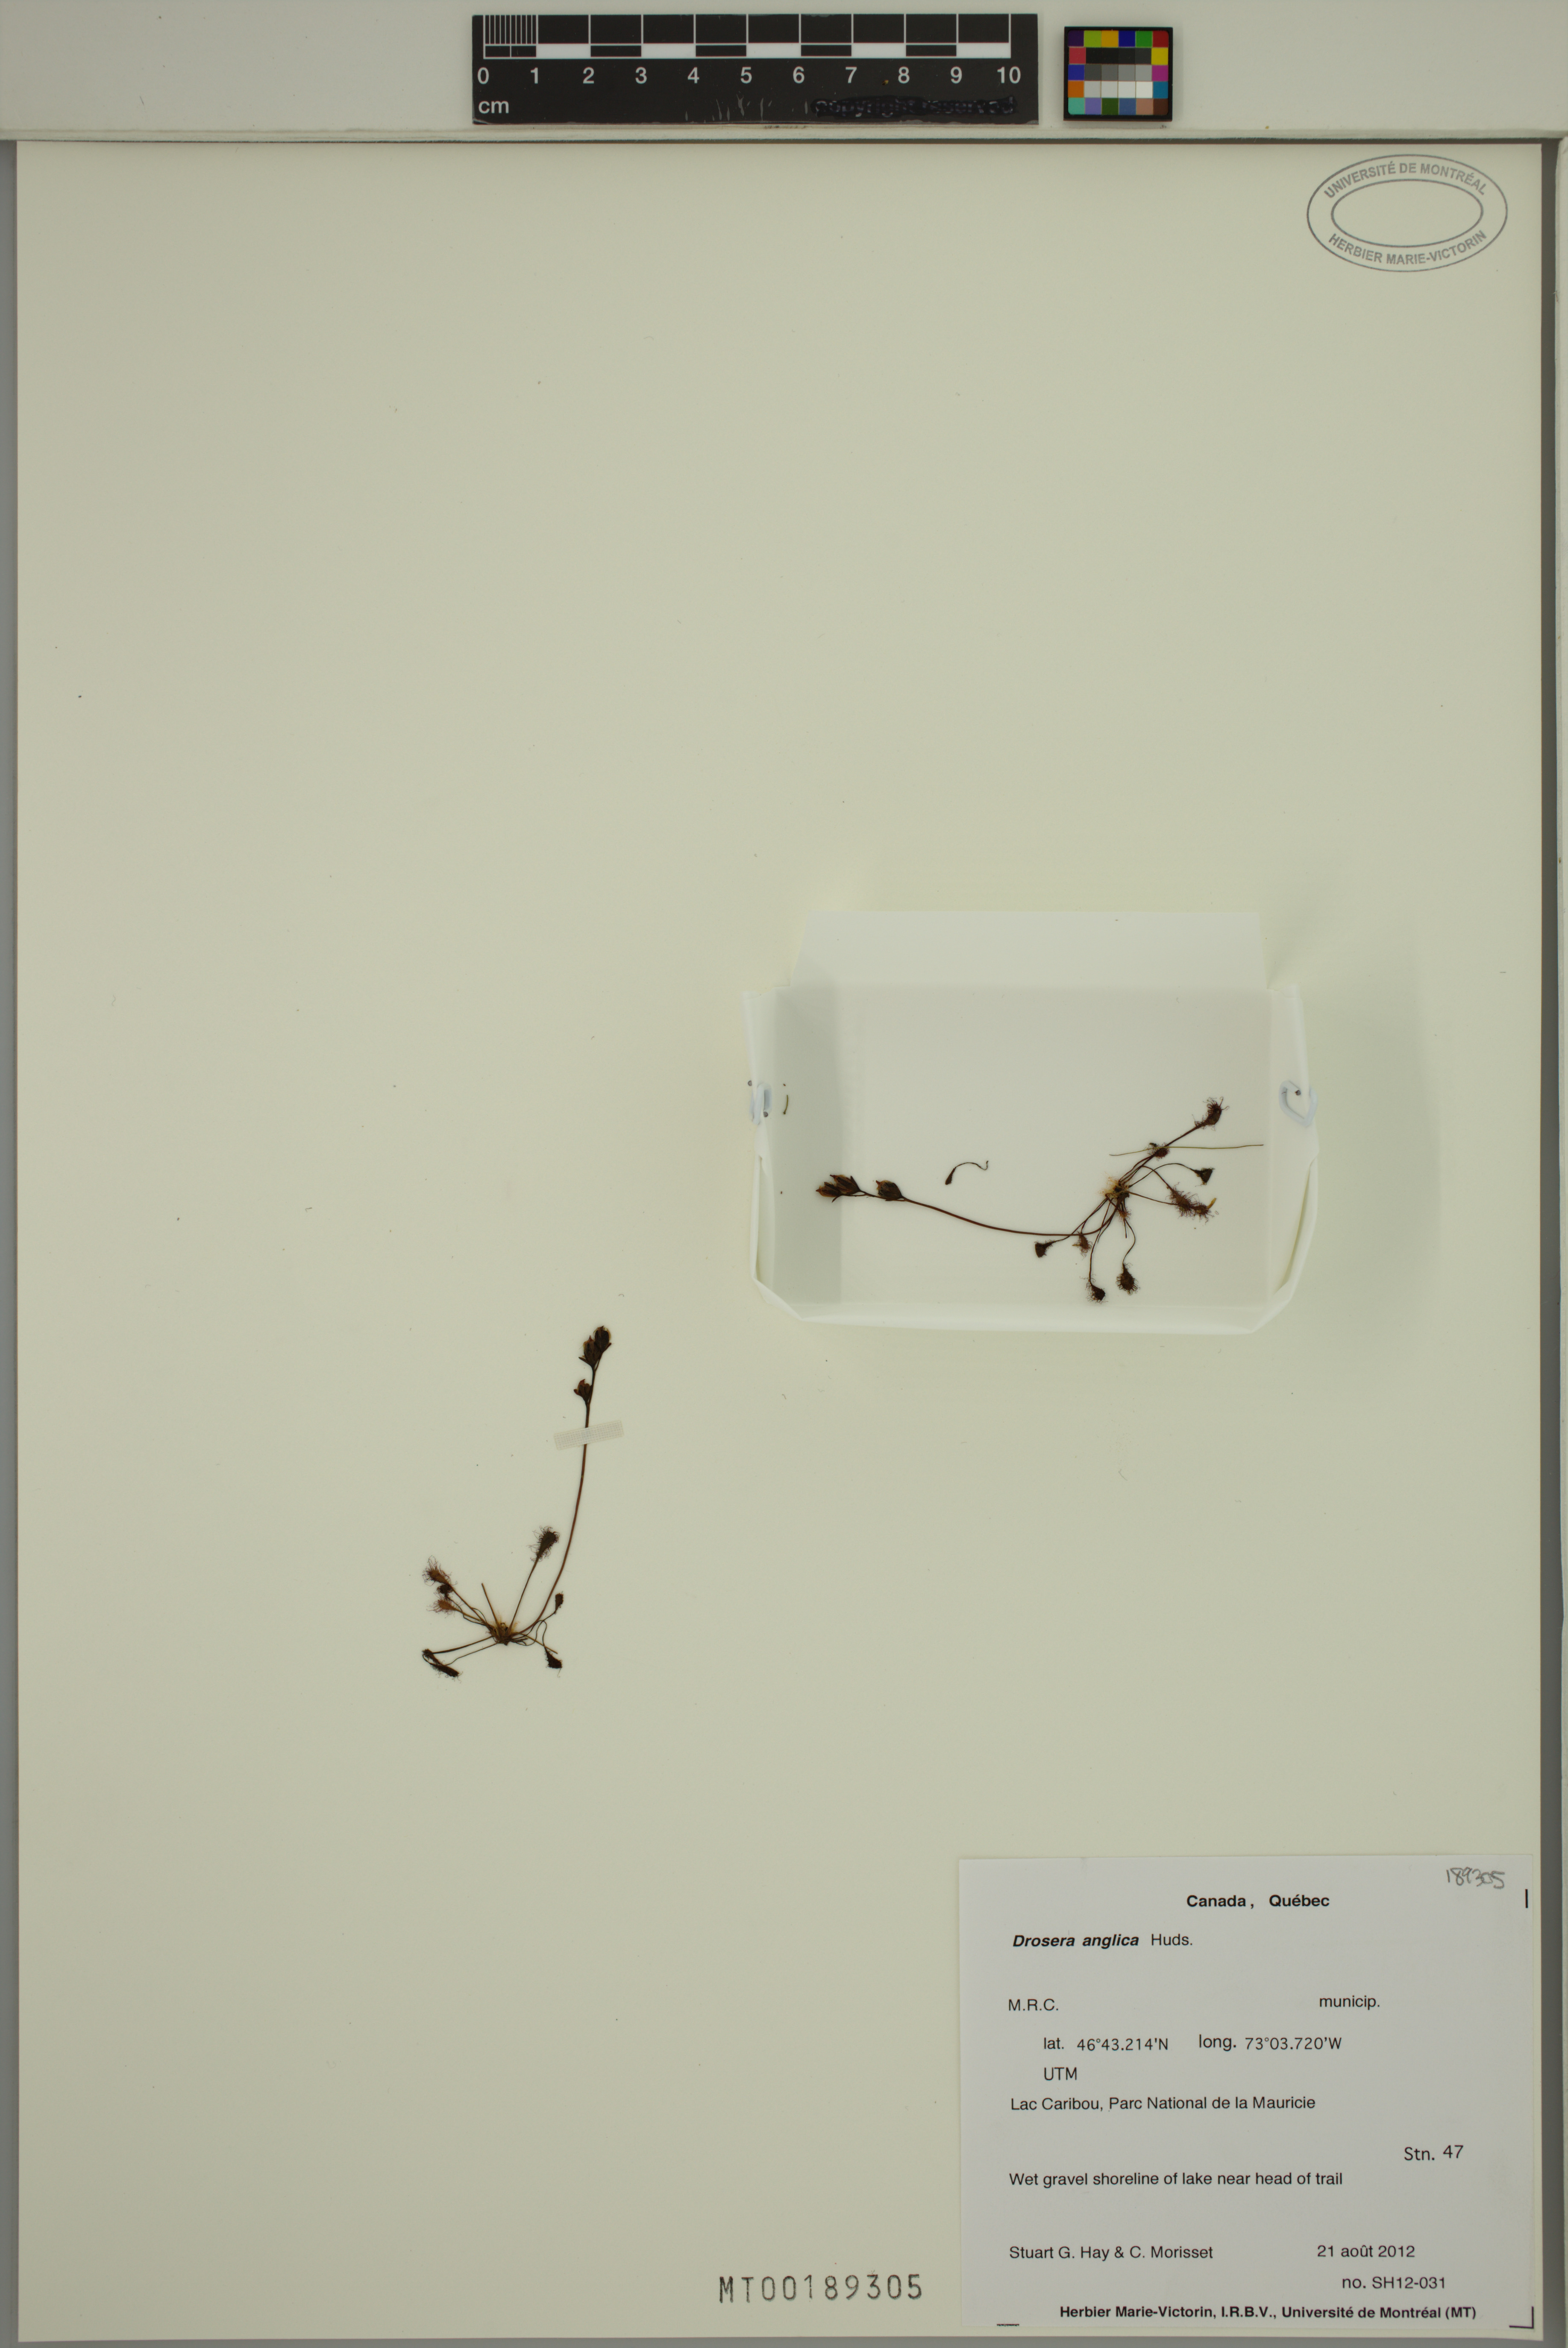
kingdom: Plantae
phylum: Tracheophyta
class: Magnoliopsida
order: Caryophyllales
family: Droseraceae
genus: Drosera
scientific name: Drosera anglica
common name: Great sundew
